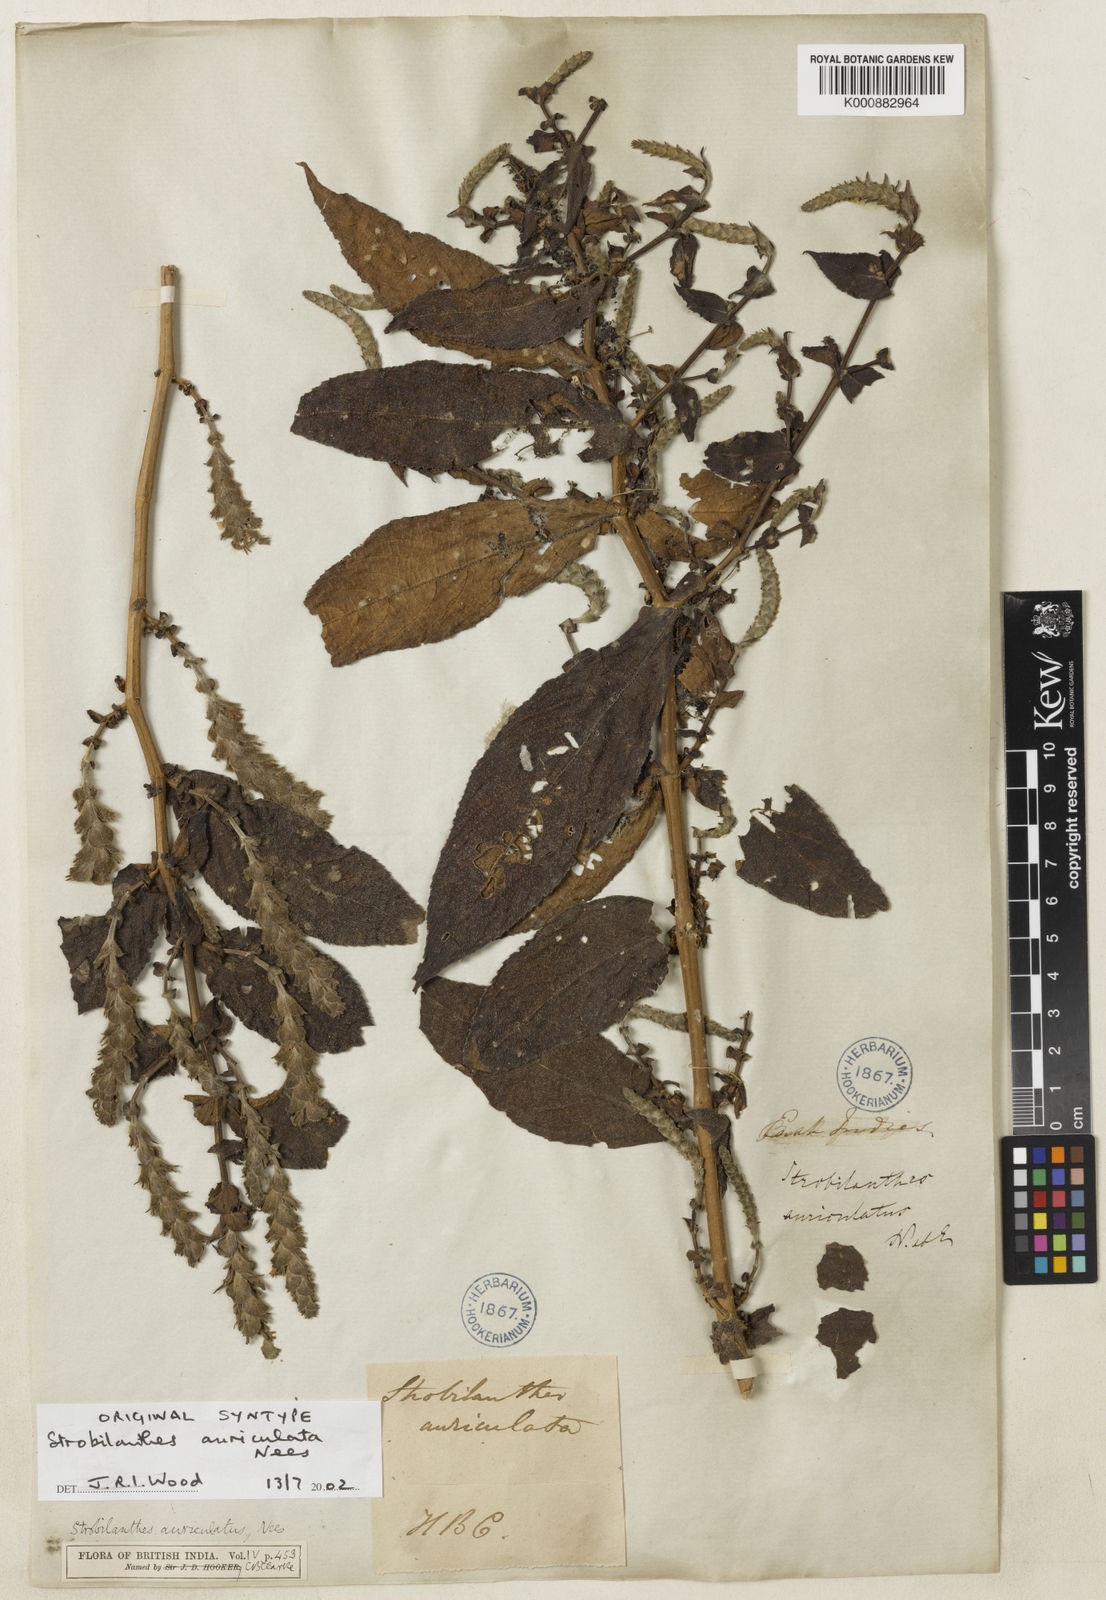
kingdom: Plantae
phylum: Tracheophyta
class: Magnoliopsida
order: Lamiales
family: Acanthaceae
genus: Strobilanthes
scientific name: Strobilanthes auriculata
